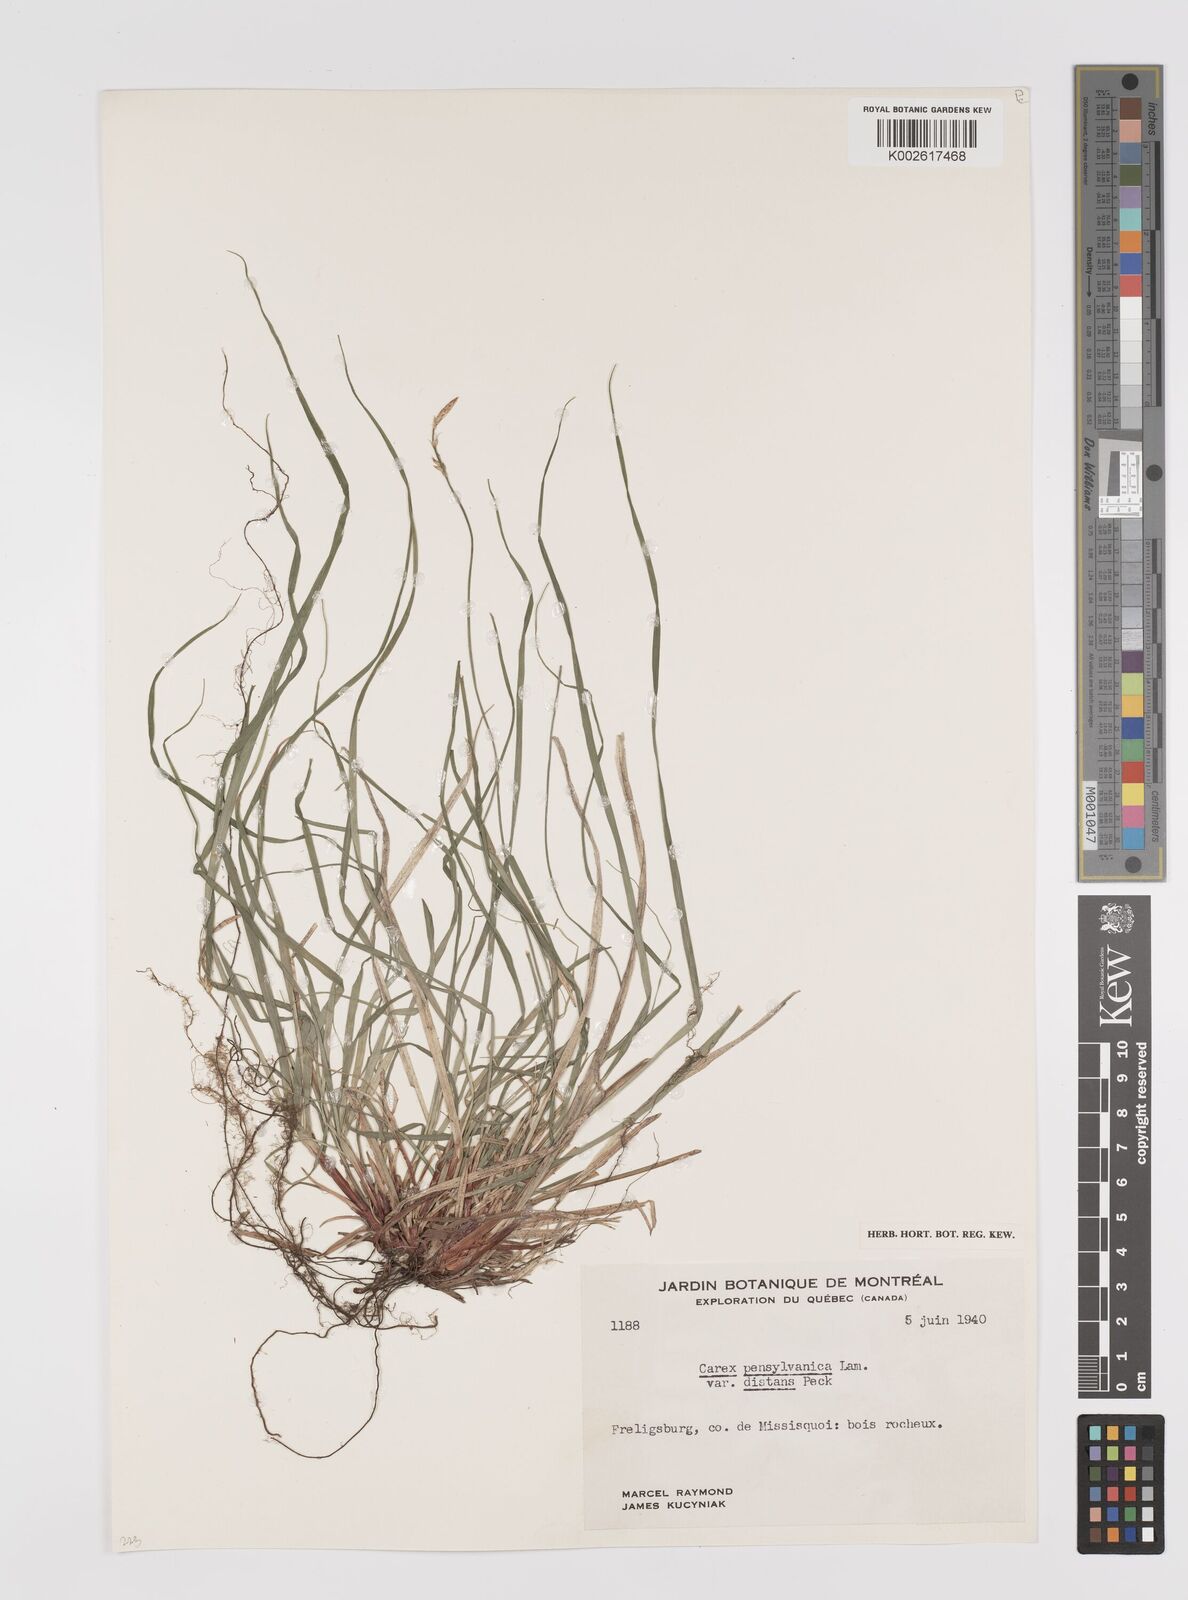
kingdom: Plantae
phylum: Tracheophyta
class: Liliopsida
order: Poales
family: Cyperaceae
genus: Carex
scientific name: Carex pensylvanica
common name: Common oak sedge
